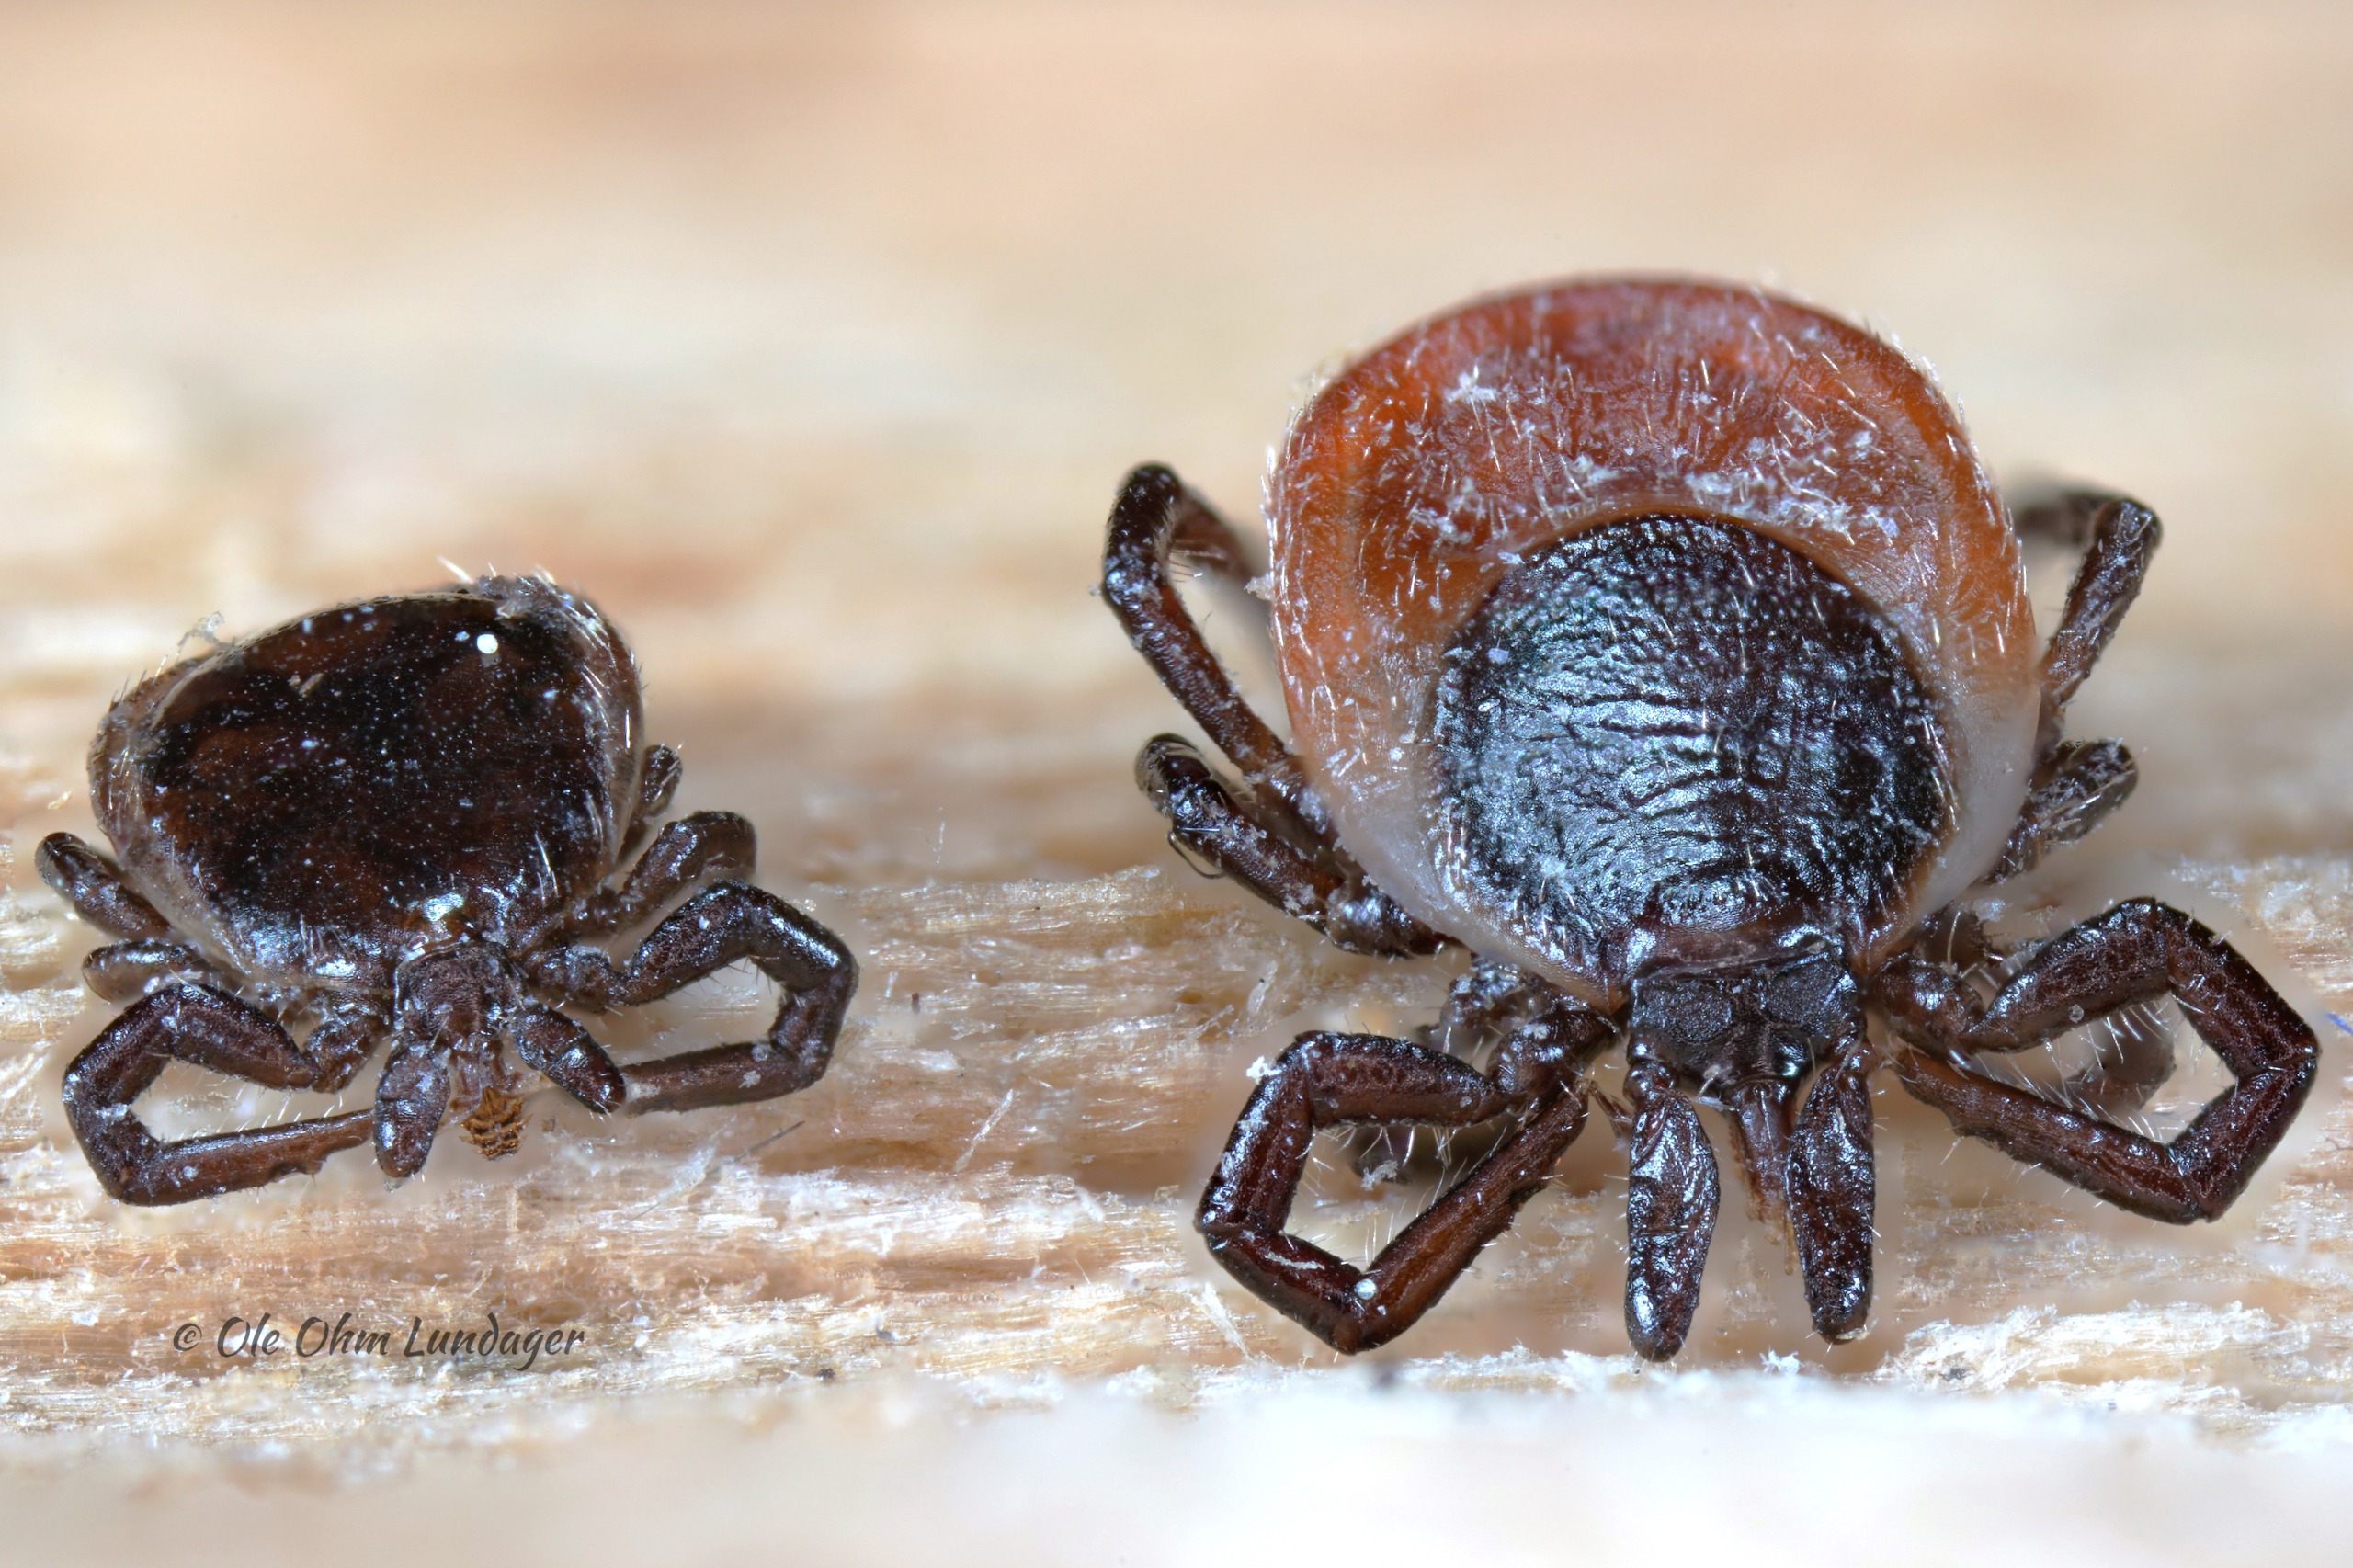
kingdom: Animalia
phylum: Arthropoda
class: Arachnida
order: Ixodida
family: Ixodidae
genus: Ixodes
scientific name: Ixodes ricinus
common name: Skovflåt
